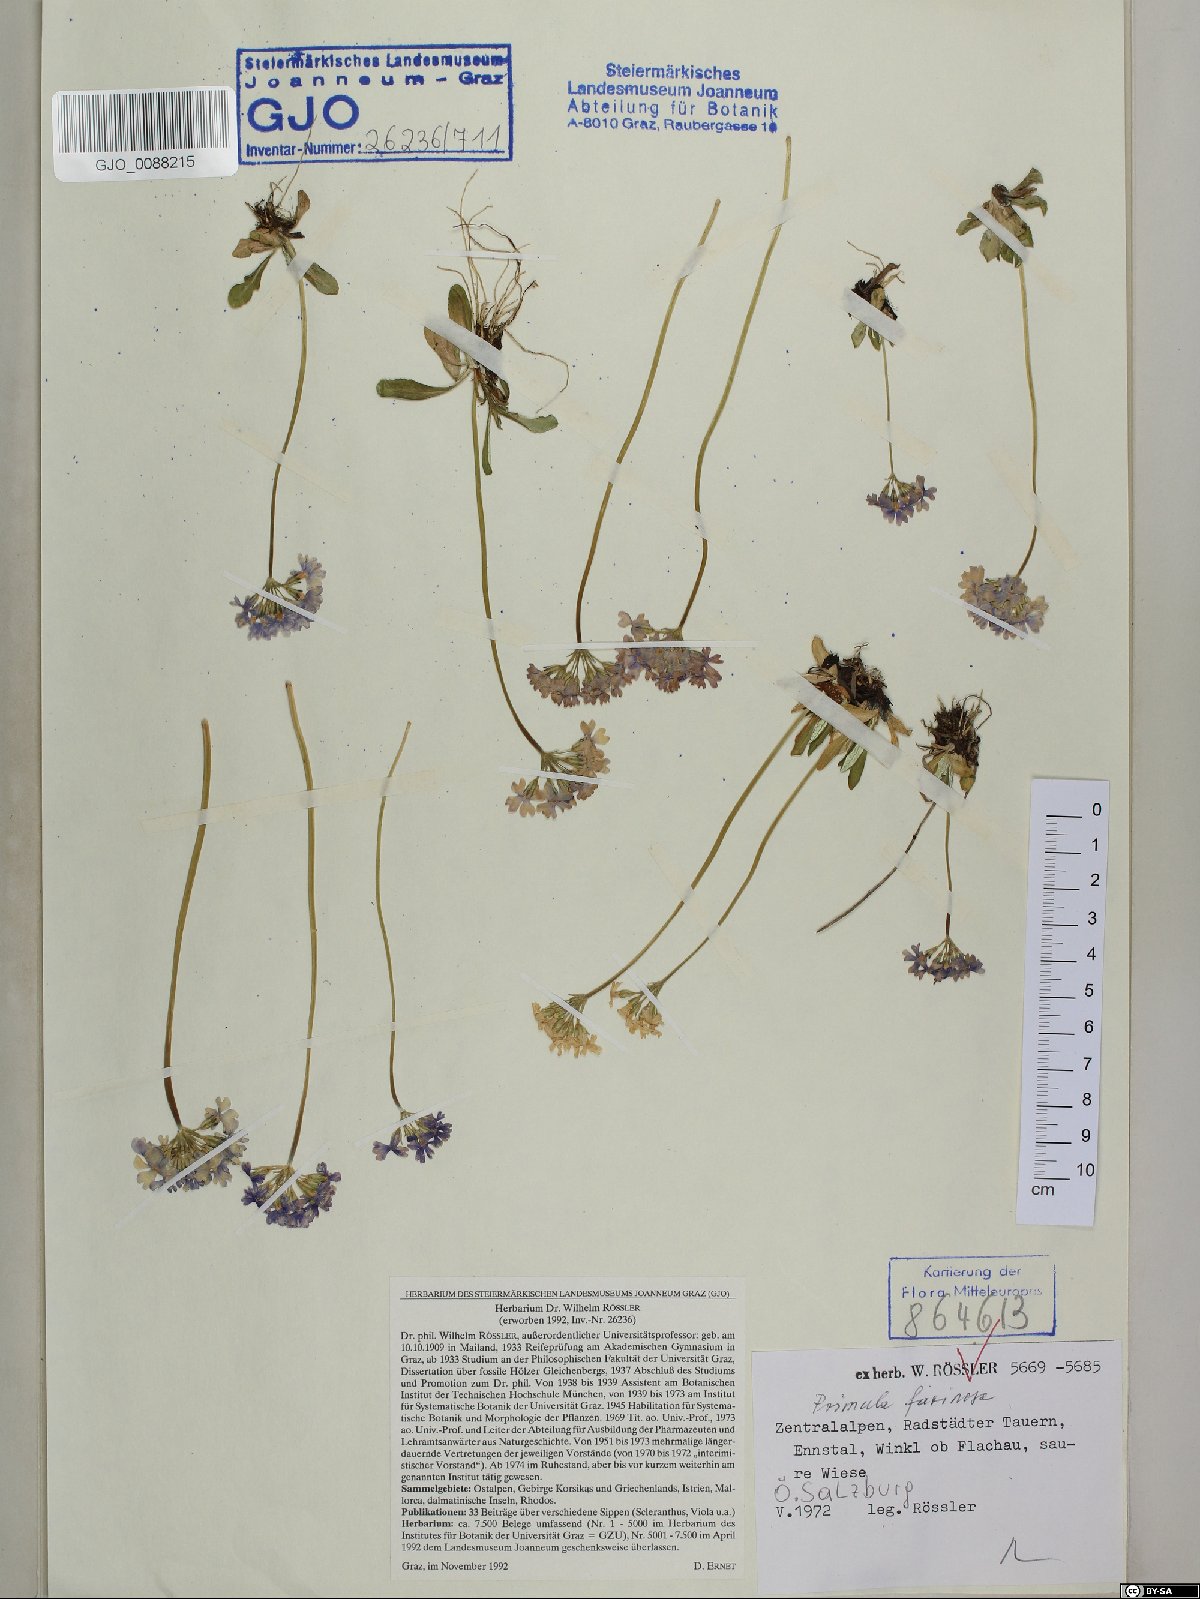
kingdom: Plantae
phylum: Tracheophyta
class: Magnoliopsida
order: Ericales
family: Primulaceae
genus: Primula
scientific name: Primula farinosa
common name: Bird's-eye primrose
